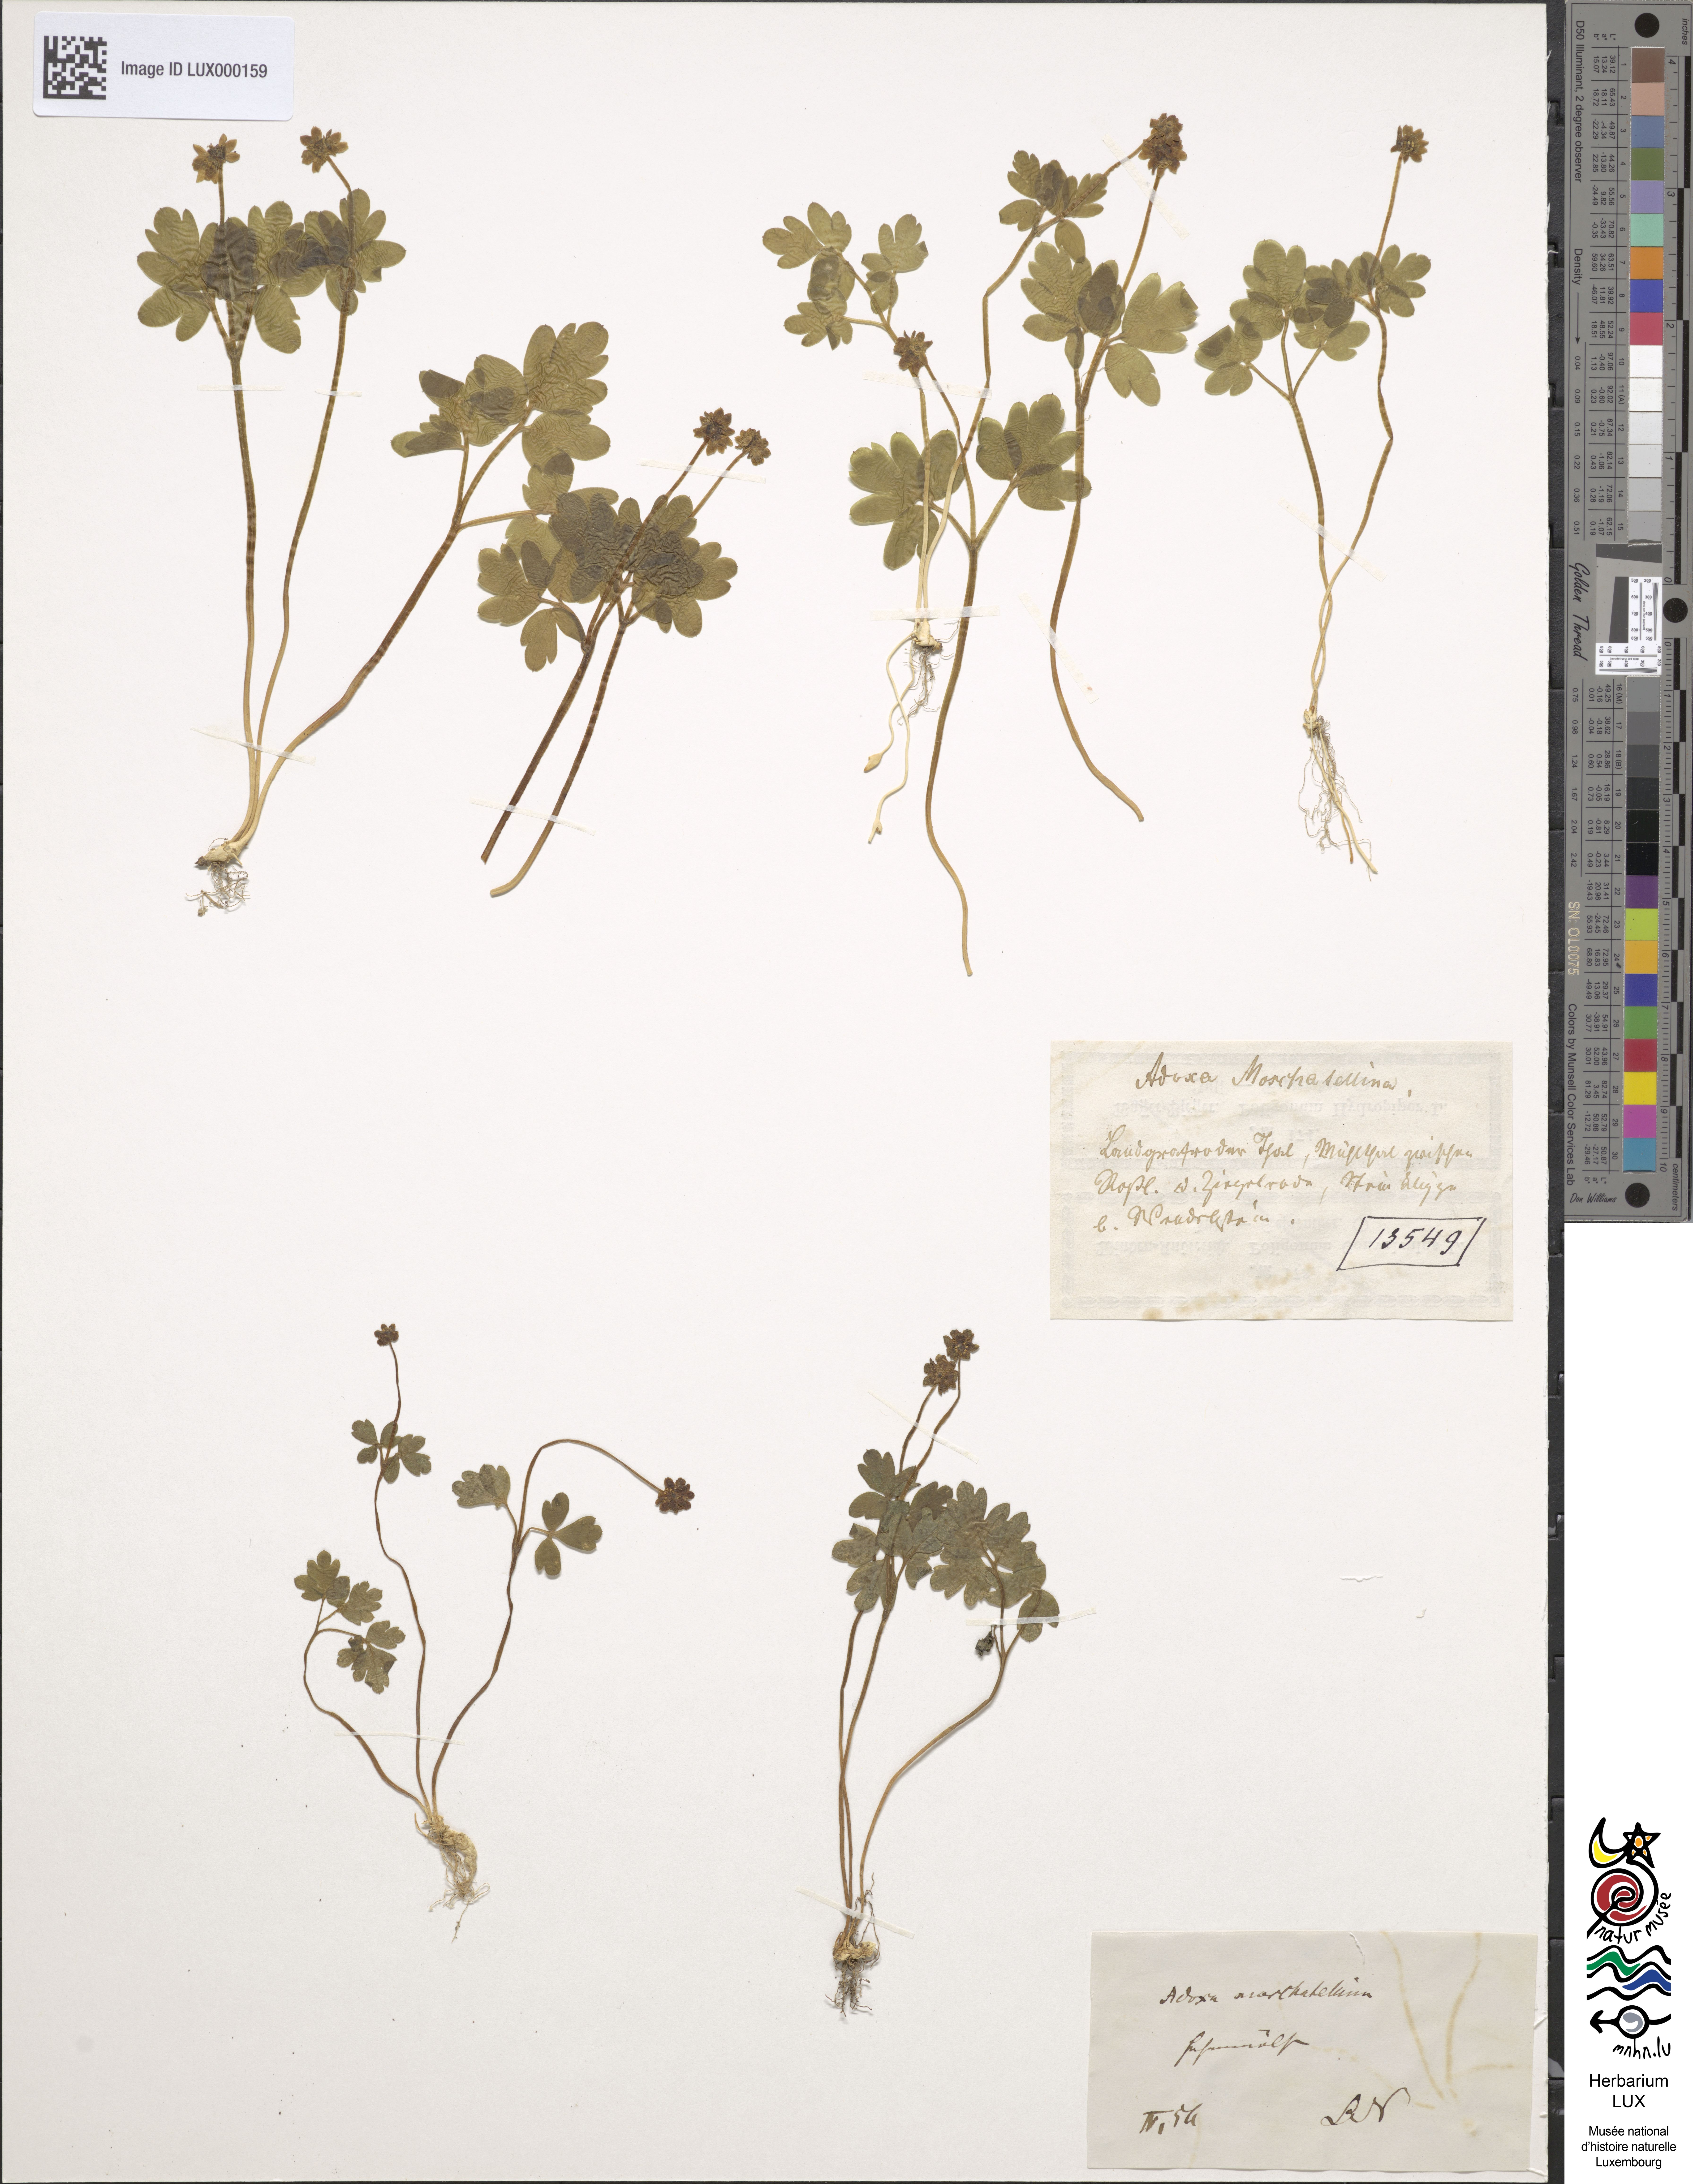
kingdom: Plantae
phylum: Tracheophyta
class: Magnoliopsida
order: Dipsacales
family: Viburnaceae
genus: Adoxa
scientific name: Adoxa moschatellina
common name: Moschatel
